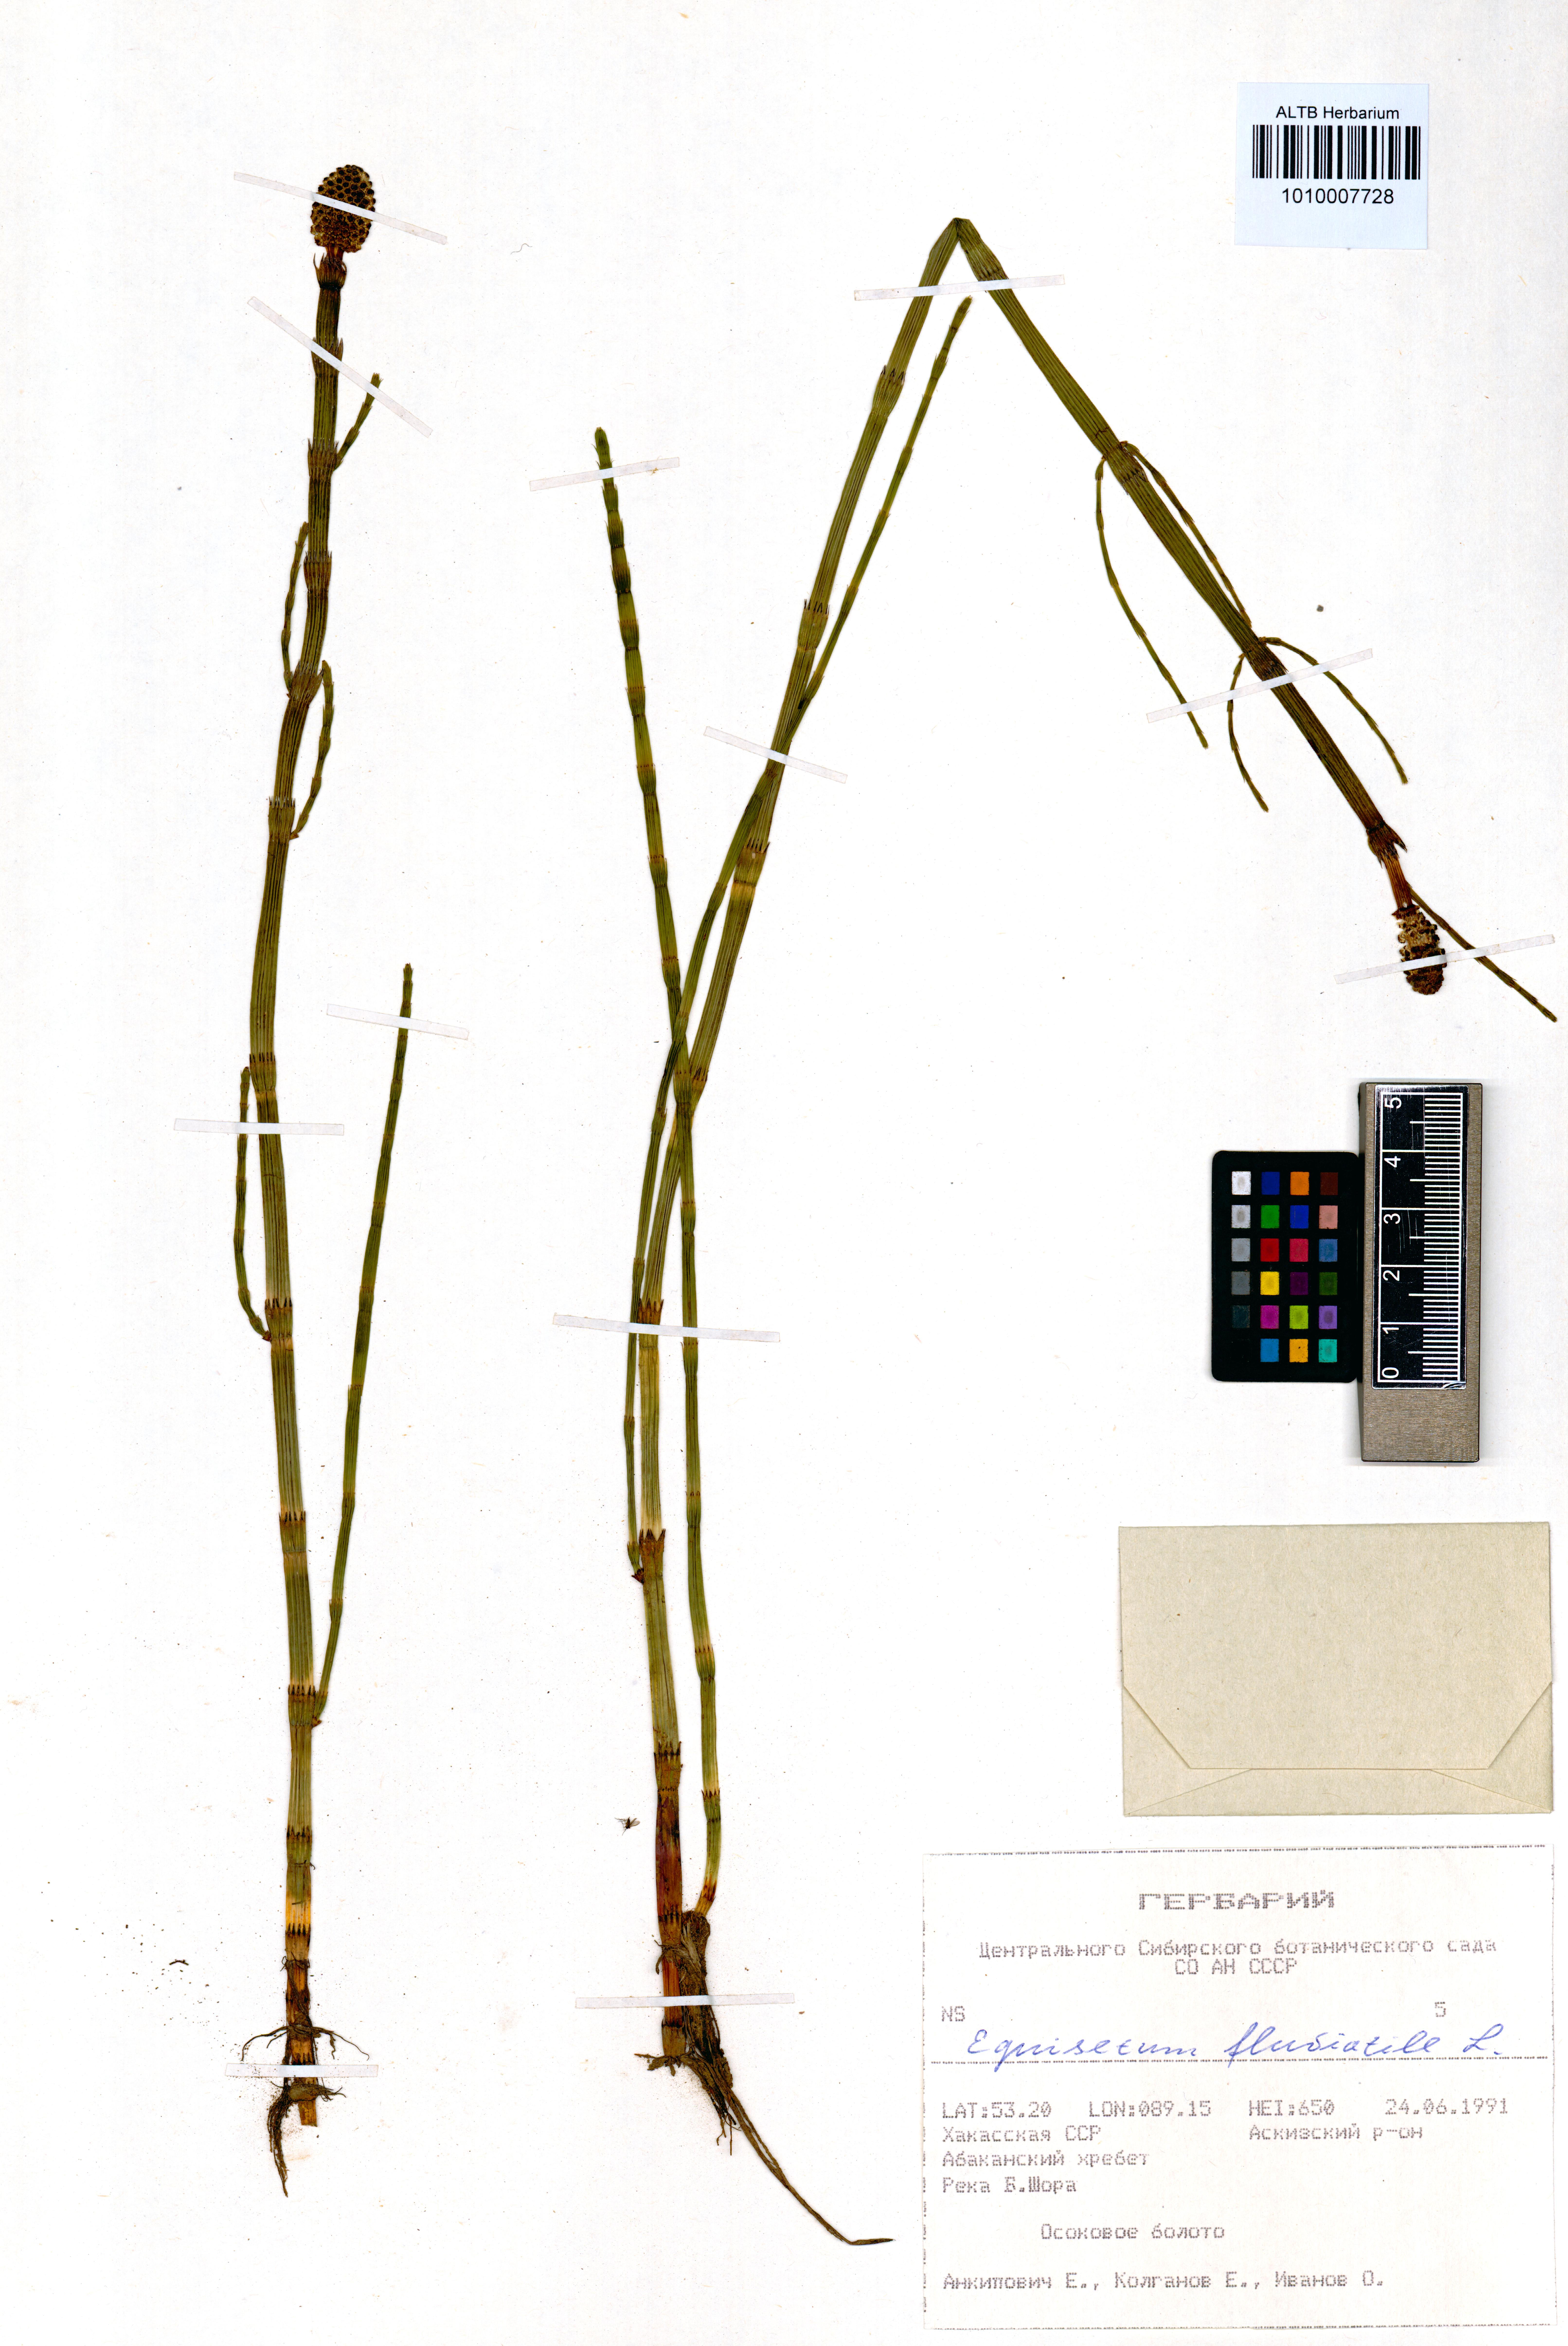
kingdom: Plantae
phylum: Tracheophyta
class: Polypodiopsida
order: Equisetales
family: Equisetaceae
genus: Equisetum
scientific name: Equisetum fluviatile
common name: Water horsetail
